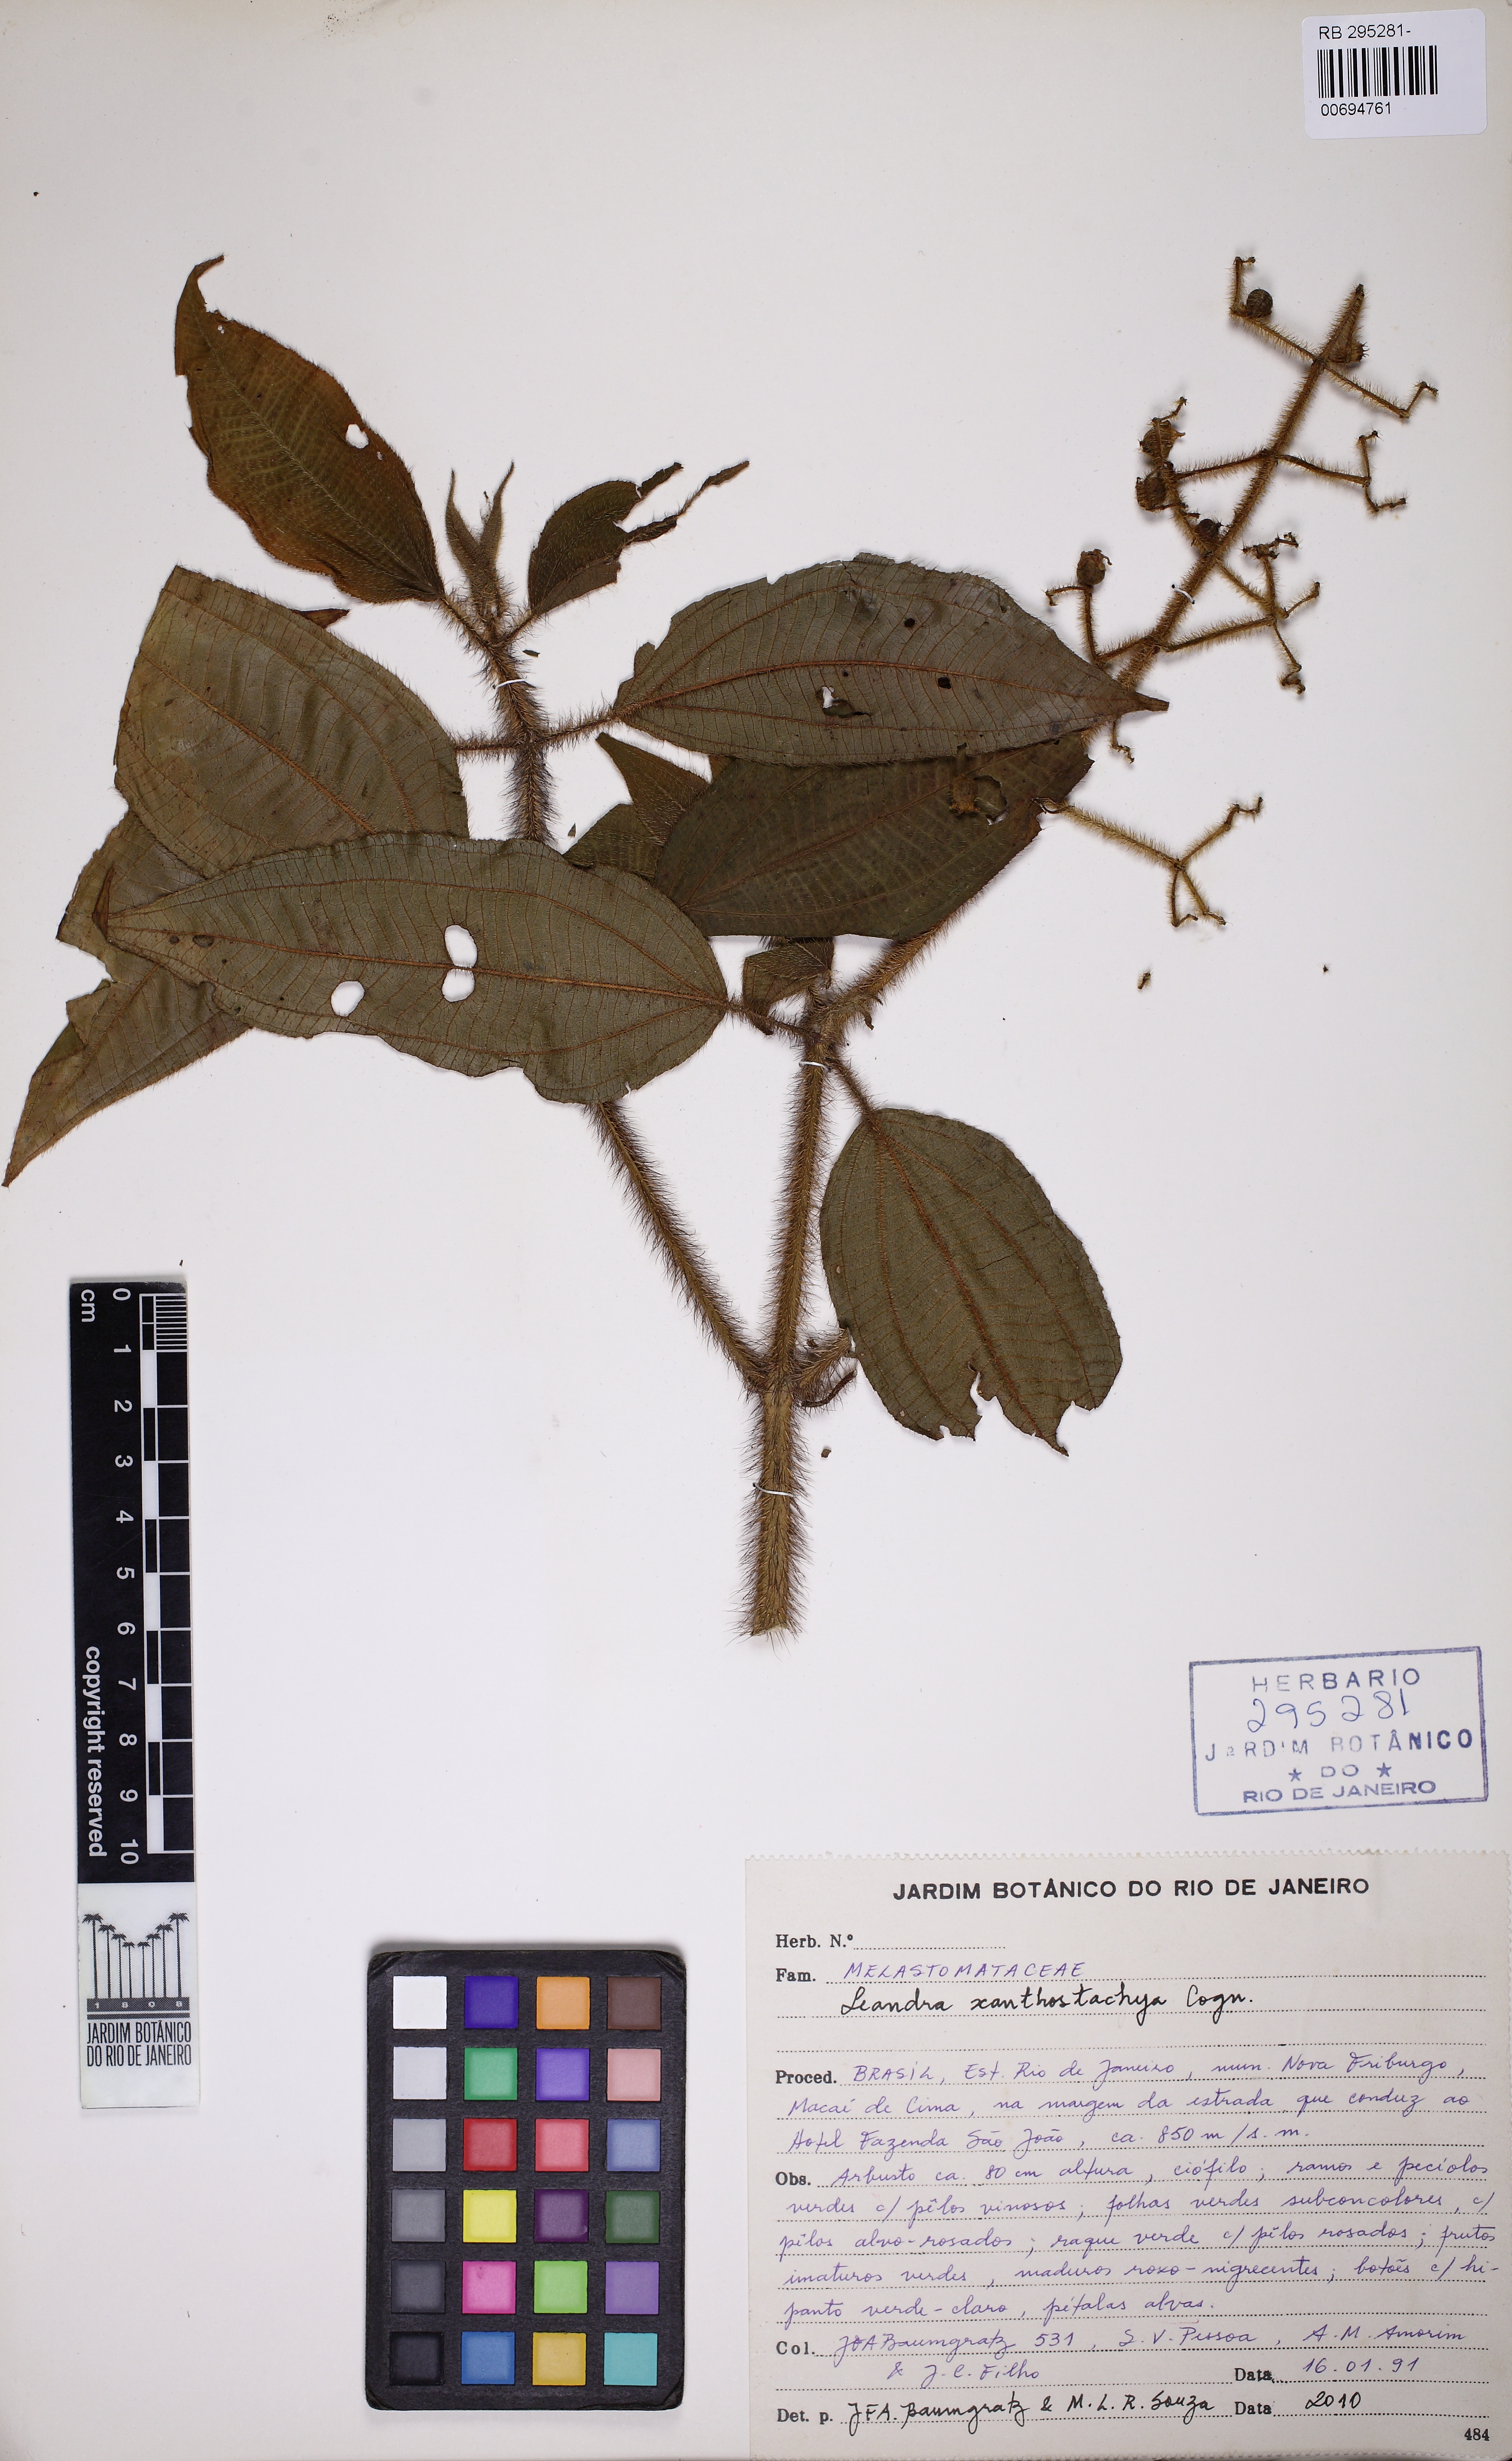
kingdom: Plantae
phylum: Tracheophyta
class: Magnoliopsida
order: Myrtales
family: Melastomataceae
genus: Miconia
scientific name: Miconia xanthocoma
